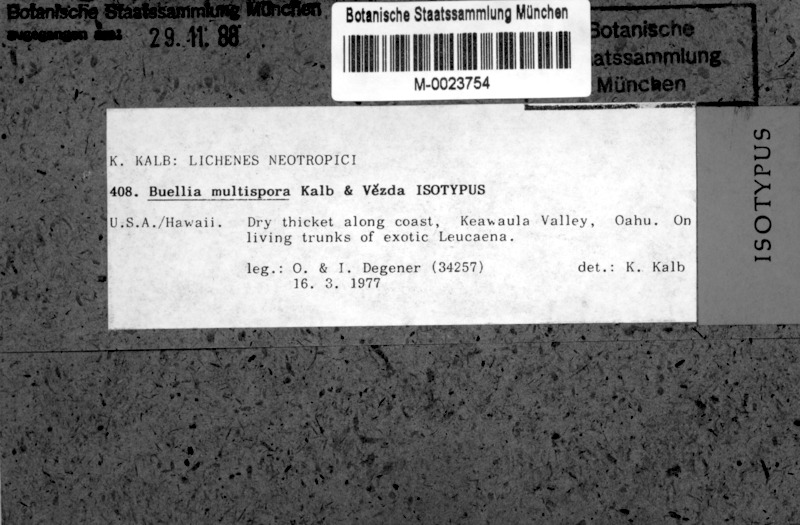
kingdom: Fungi
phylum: Ascomycota
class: Lecanoromycetes
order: Caliciales
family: Caliciaceae
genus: Buellia
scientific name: Buellia multispora
